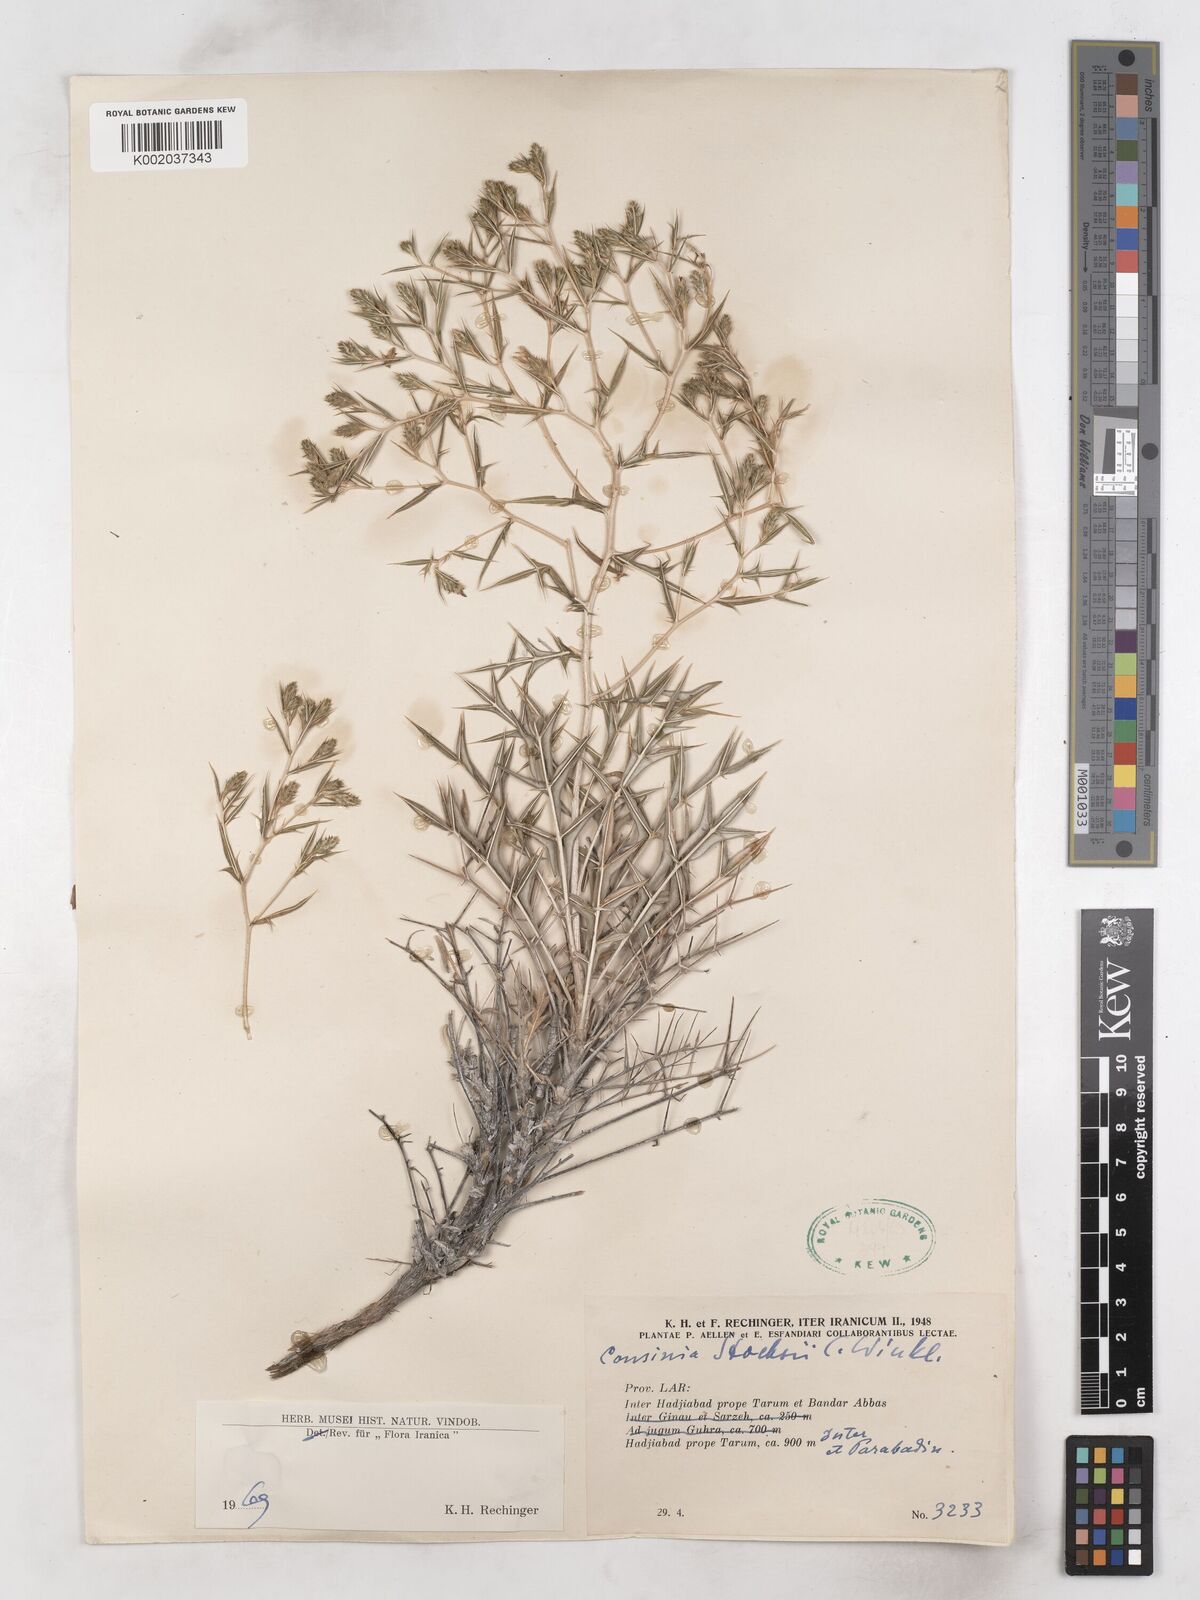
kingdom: Plantae
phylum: Tracheophyta
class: Magnoliopsida
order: Asterales
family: Asteraceae
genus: Cousinia
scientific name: Cousinia stocksii
